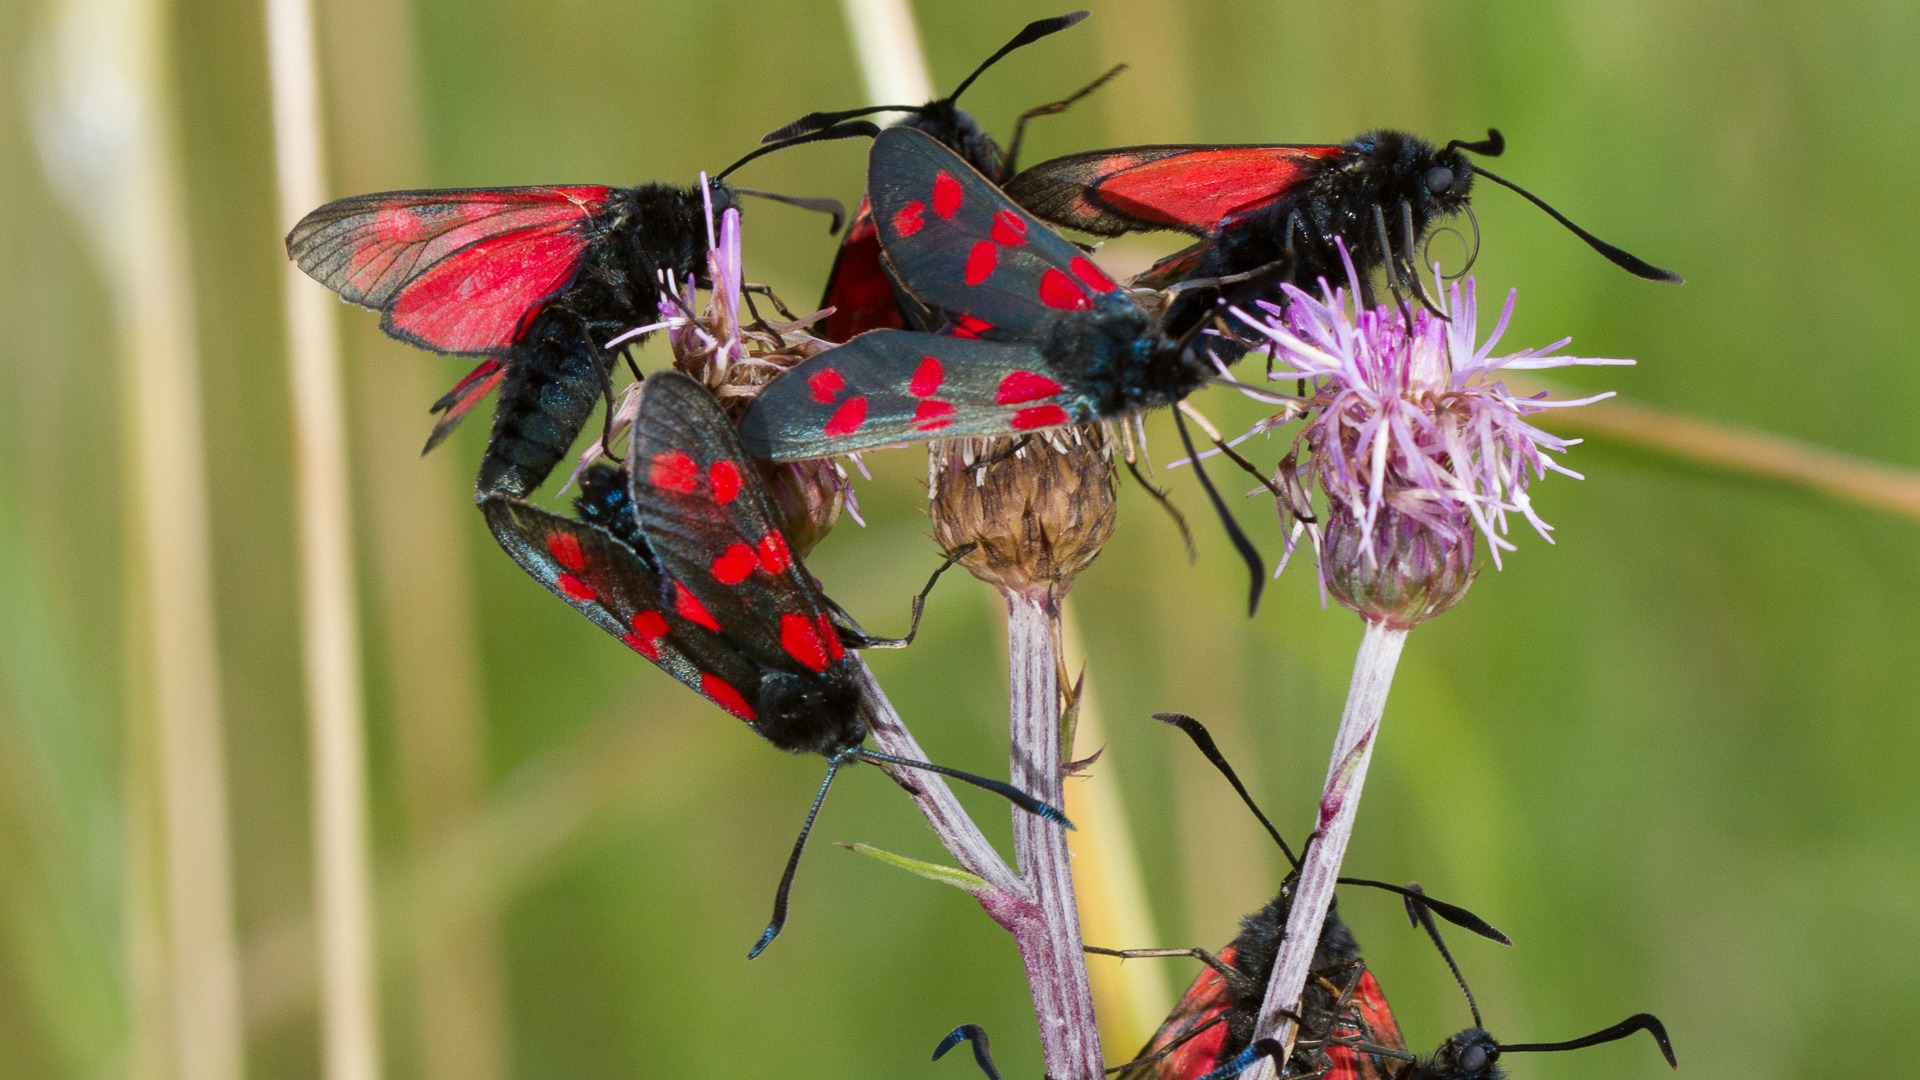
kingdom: Animalia
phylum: Arthropoda
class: Insecta
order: Lepidoptera
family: Zygaenidae
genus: Zygaena
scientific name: Zygaena filipendulae
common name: Seksplettet køllesværmer
